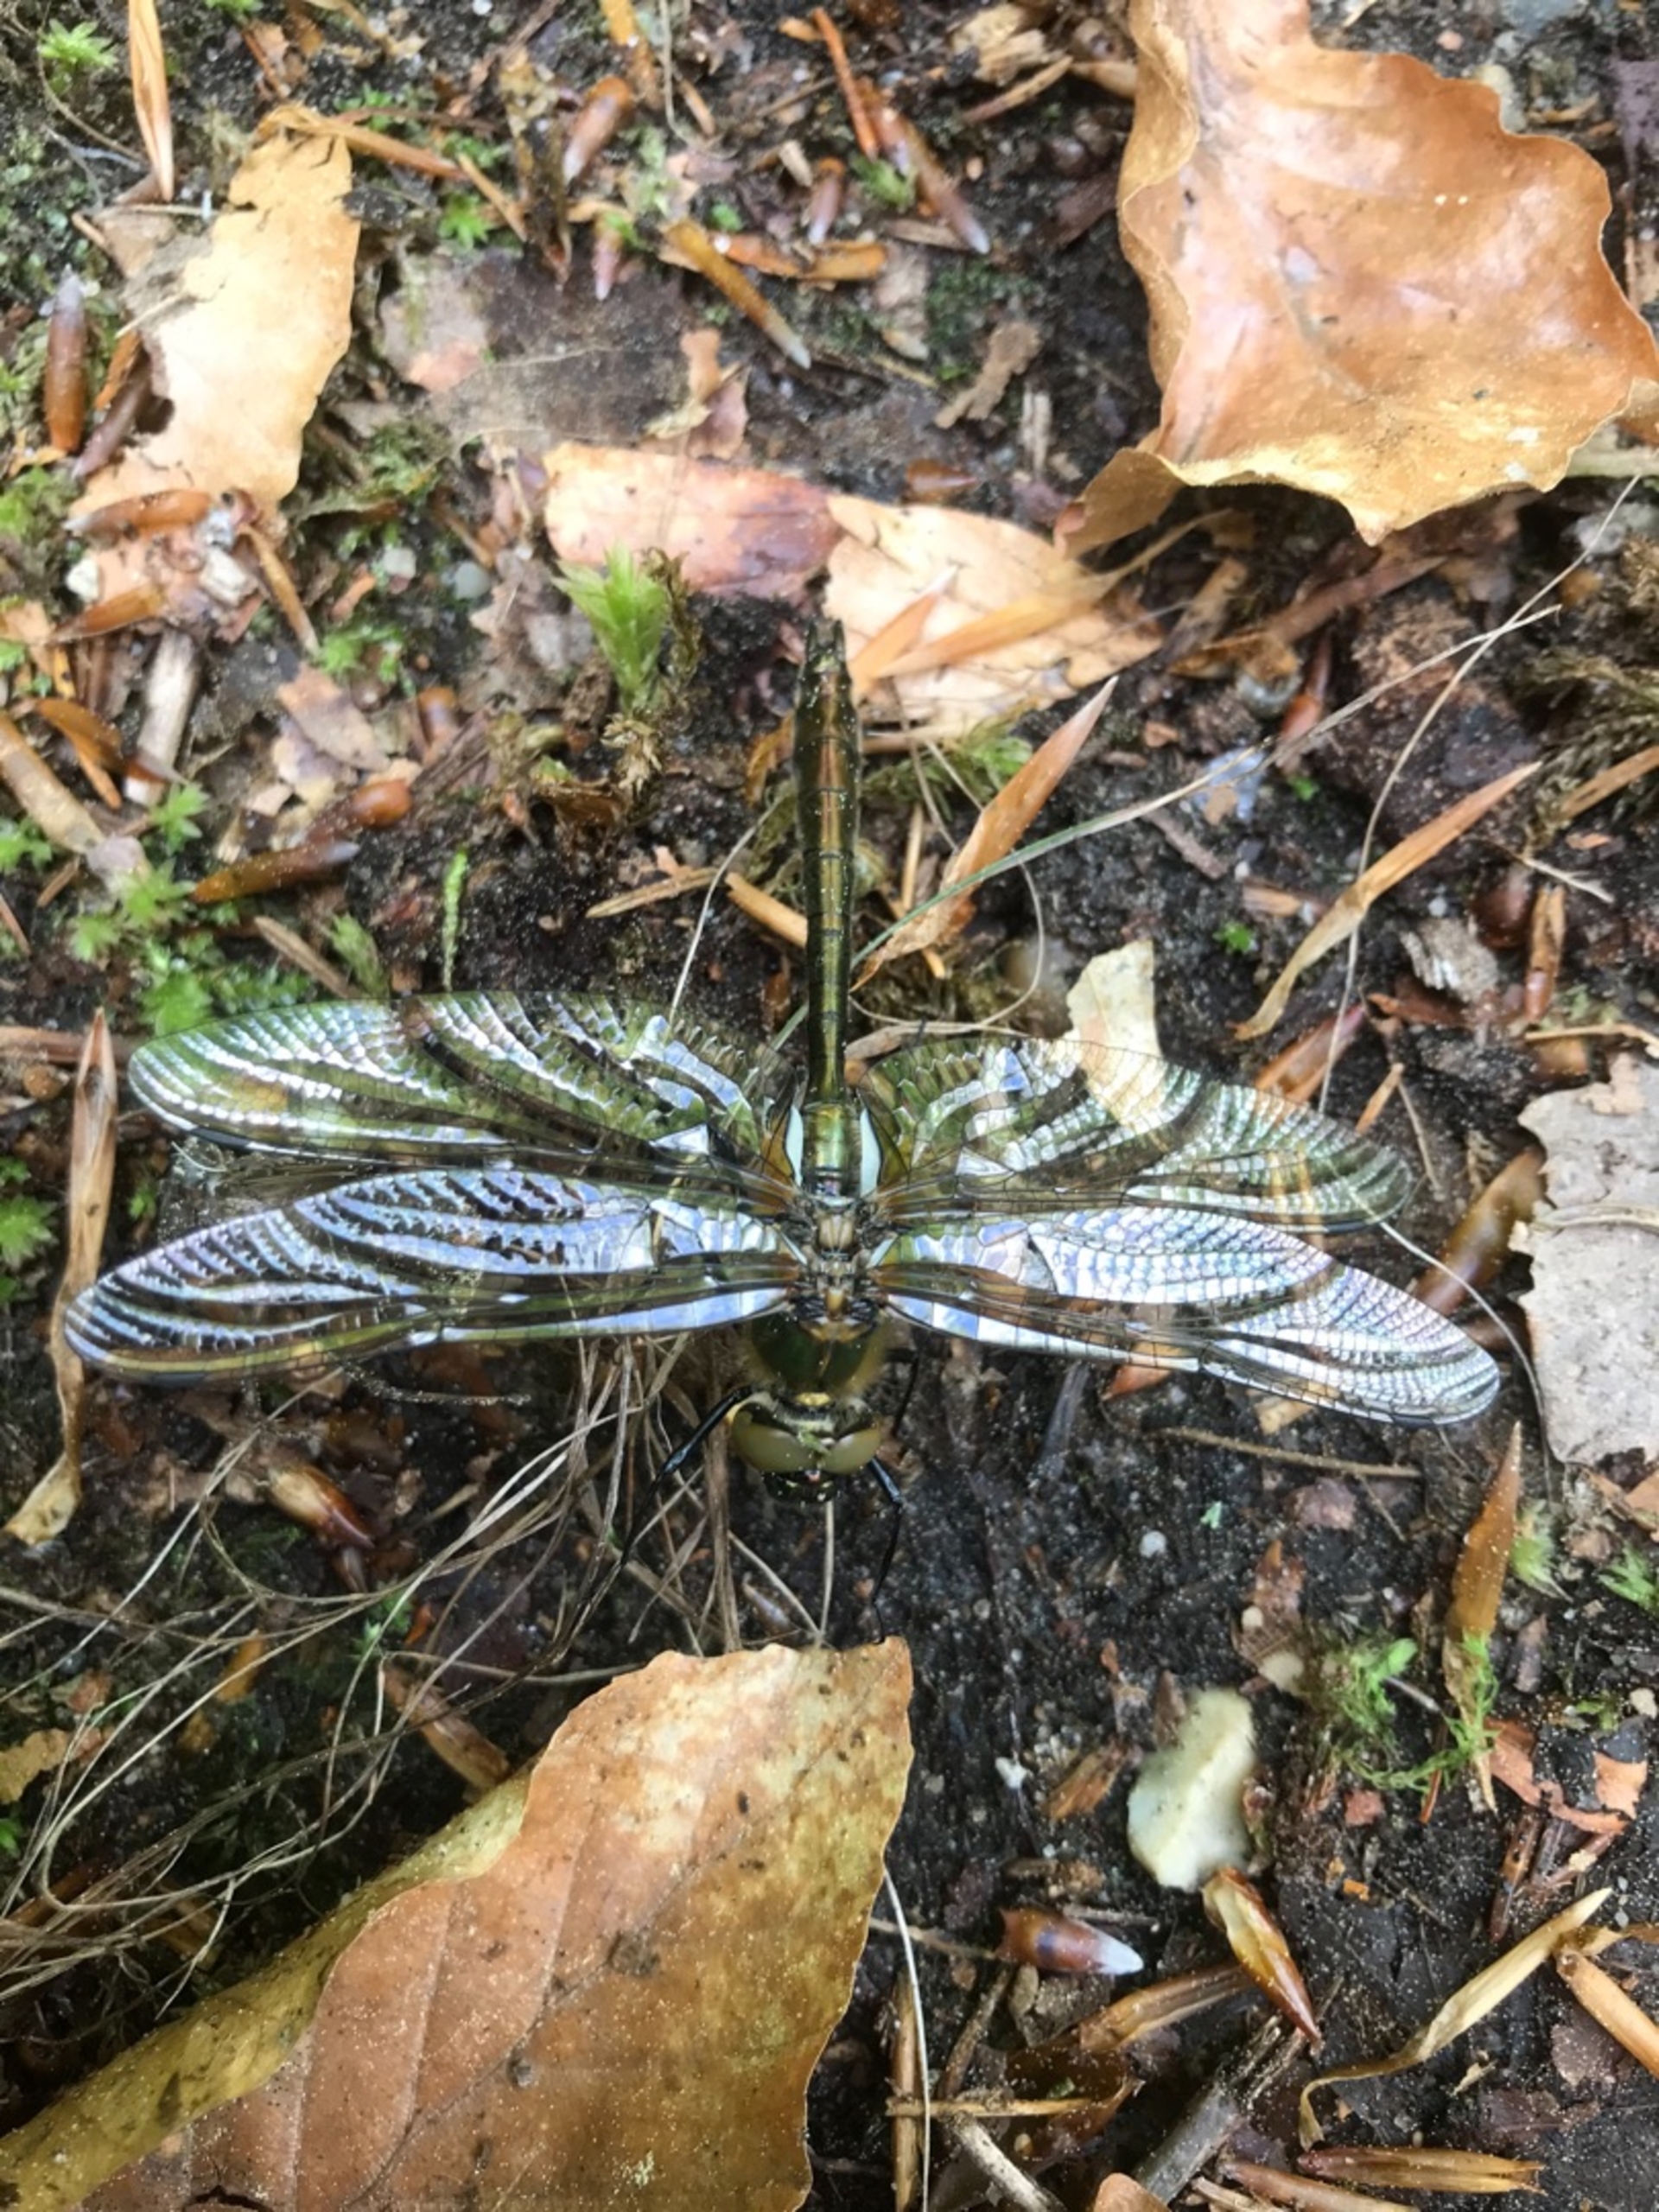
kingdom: Animalia
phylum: Arthropoda
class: Insecta
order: Odonata
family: Corduliidae
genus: Cordulia
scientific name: Cordulia aenea
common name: Grøn smaragdlibel
